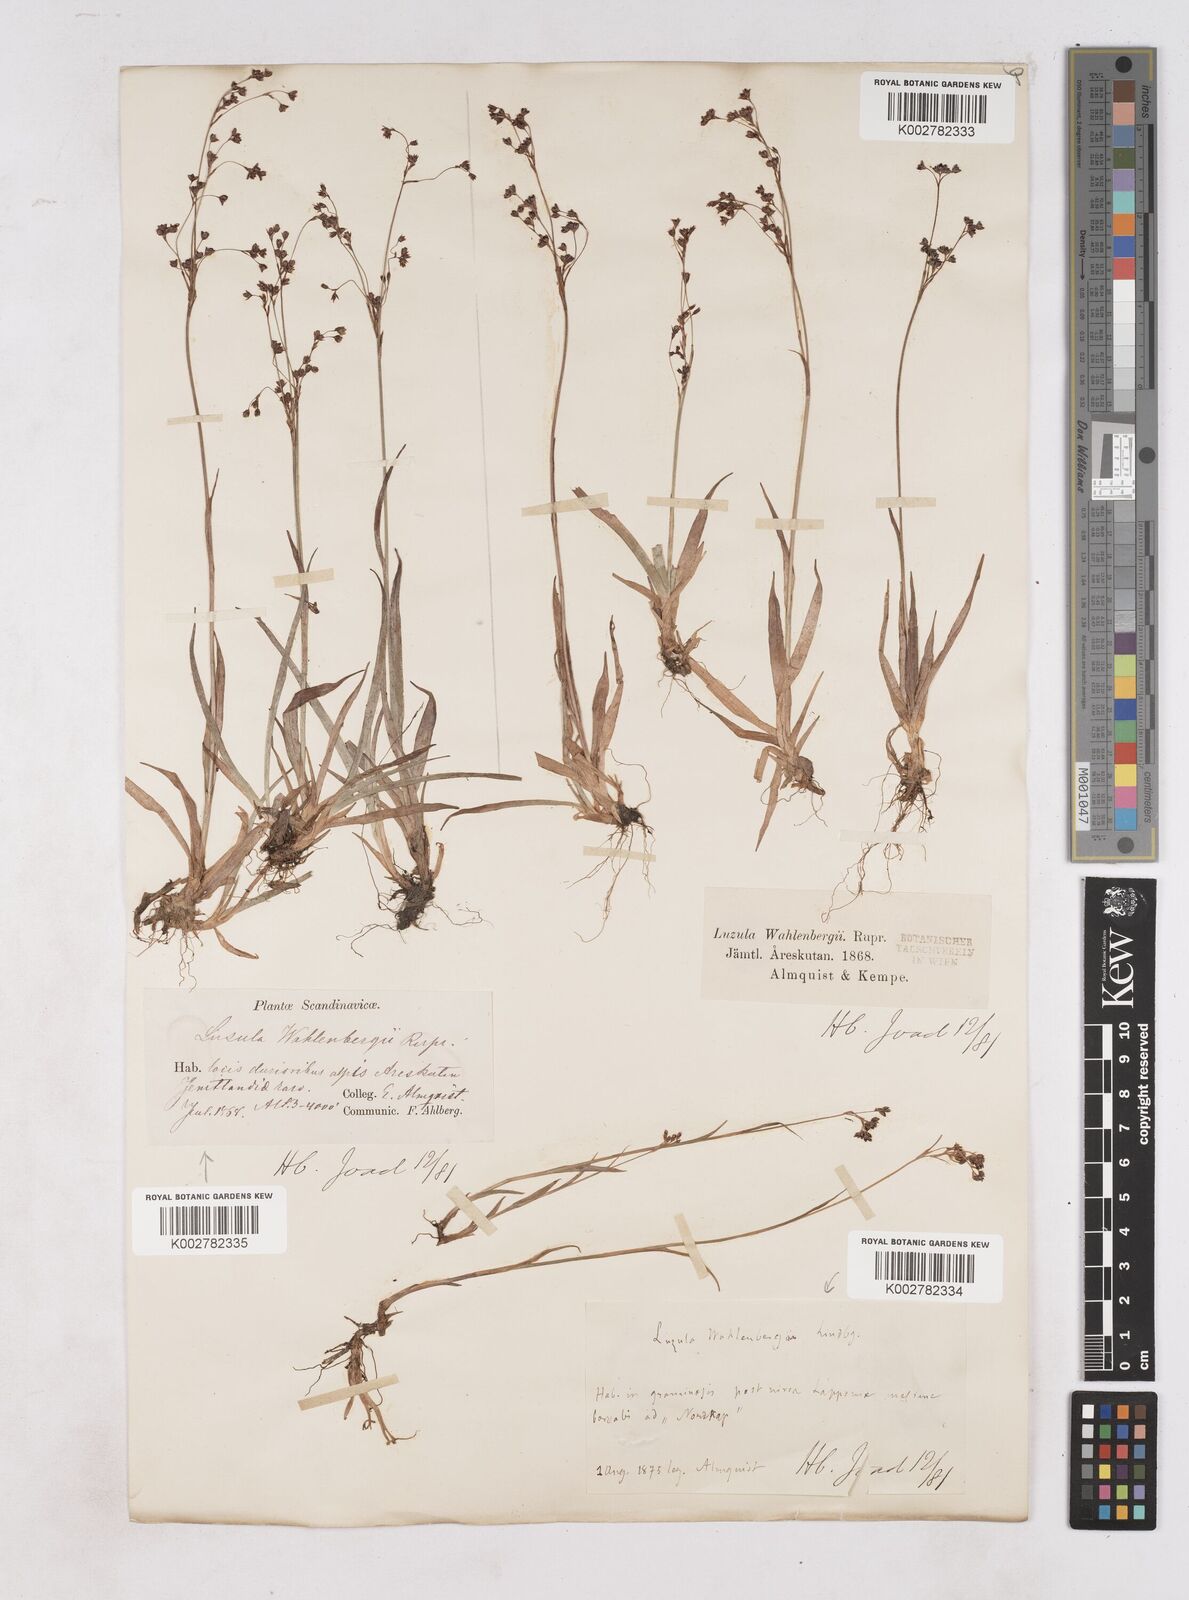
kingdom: Plantae
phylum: Tracheophyta
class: Liliopsida
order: Poales
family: Juncaceae
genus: Luzula
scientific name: Luzula alpinopilosa
